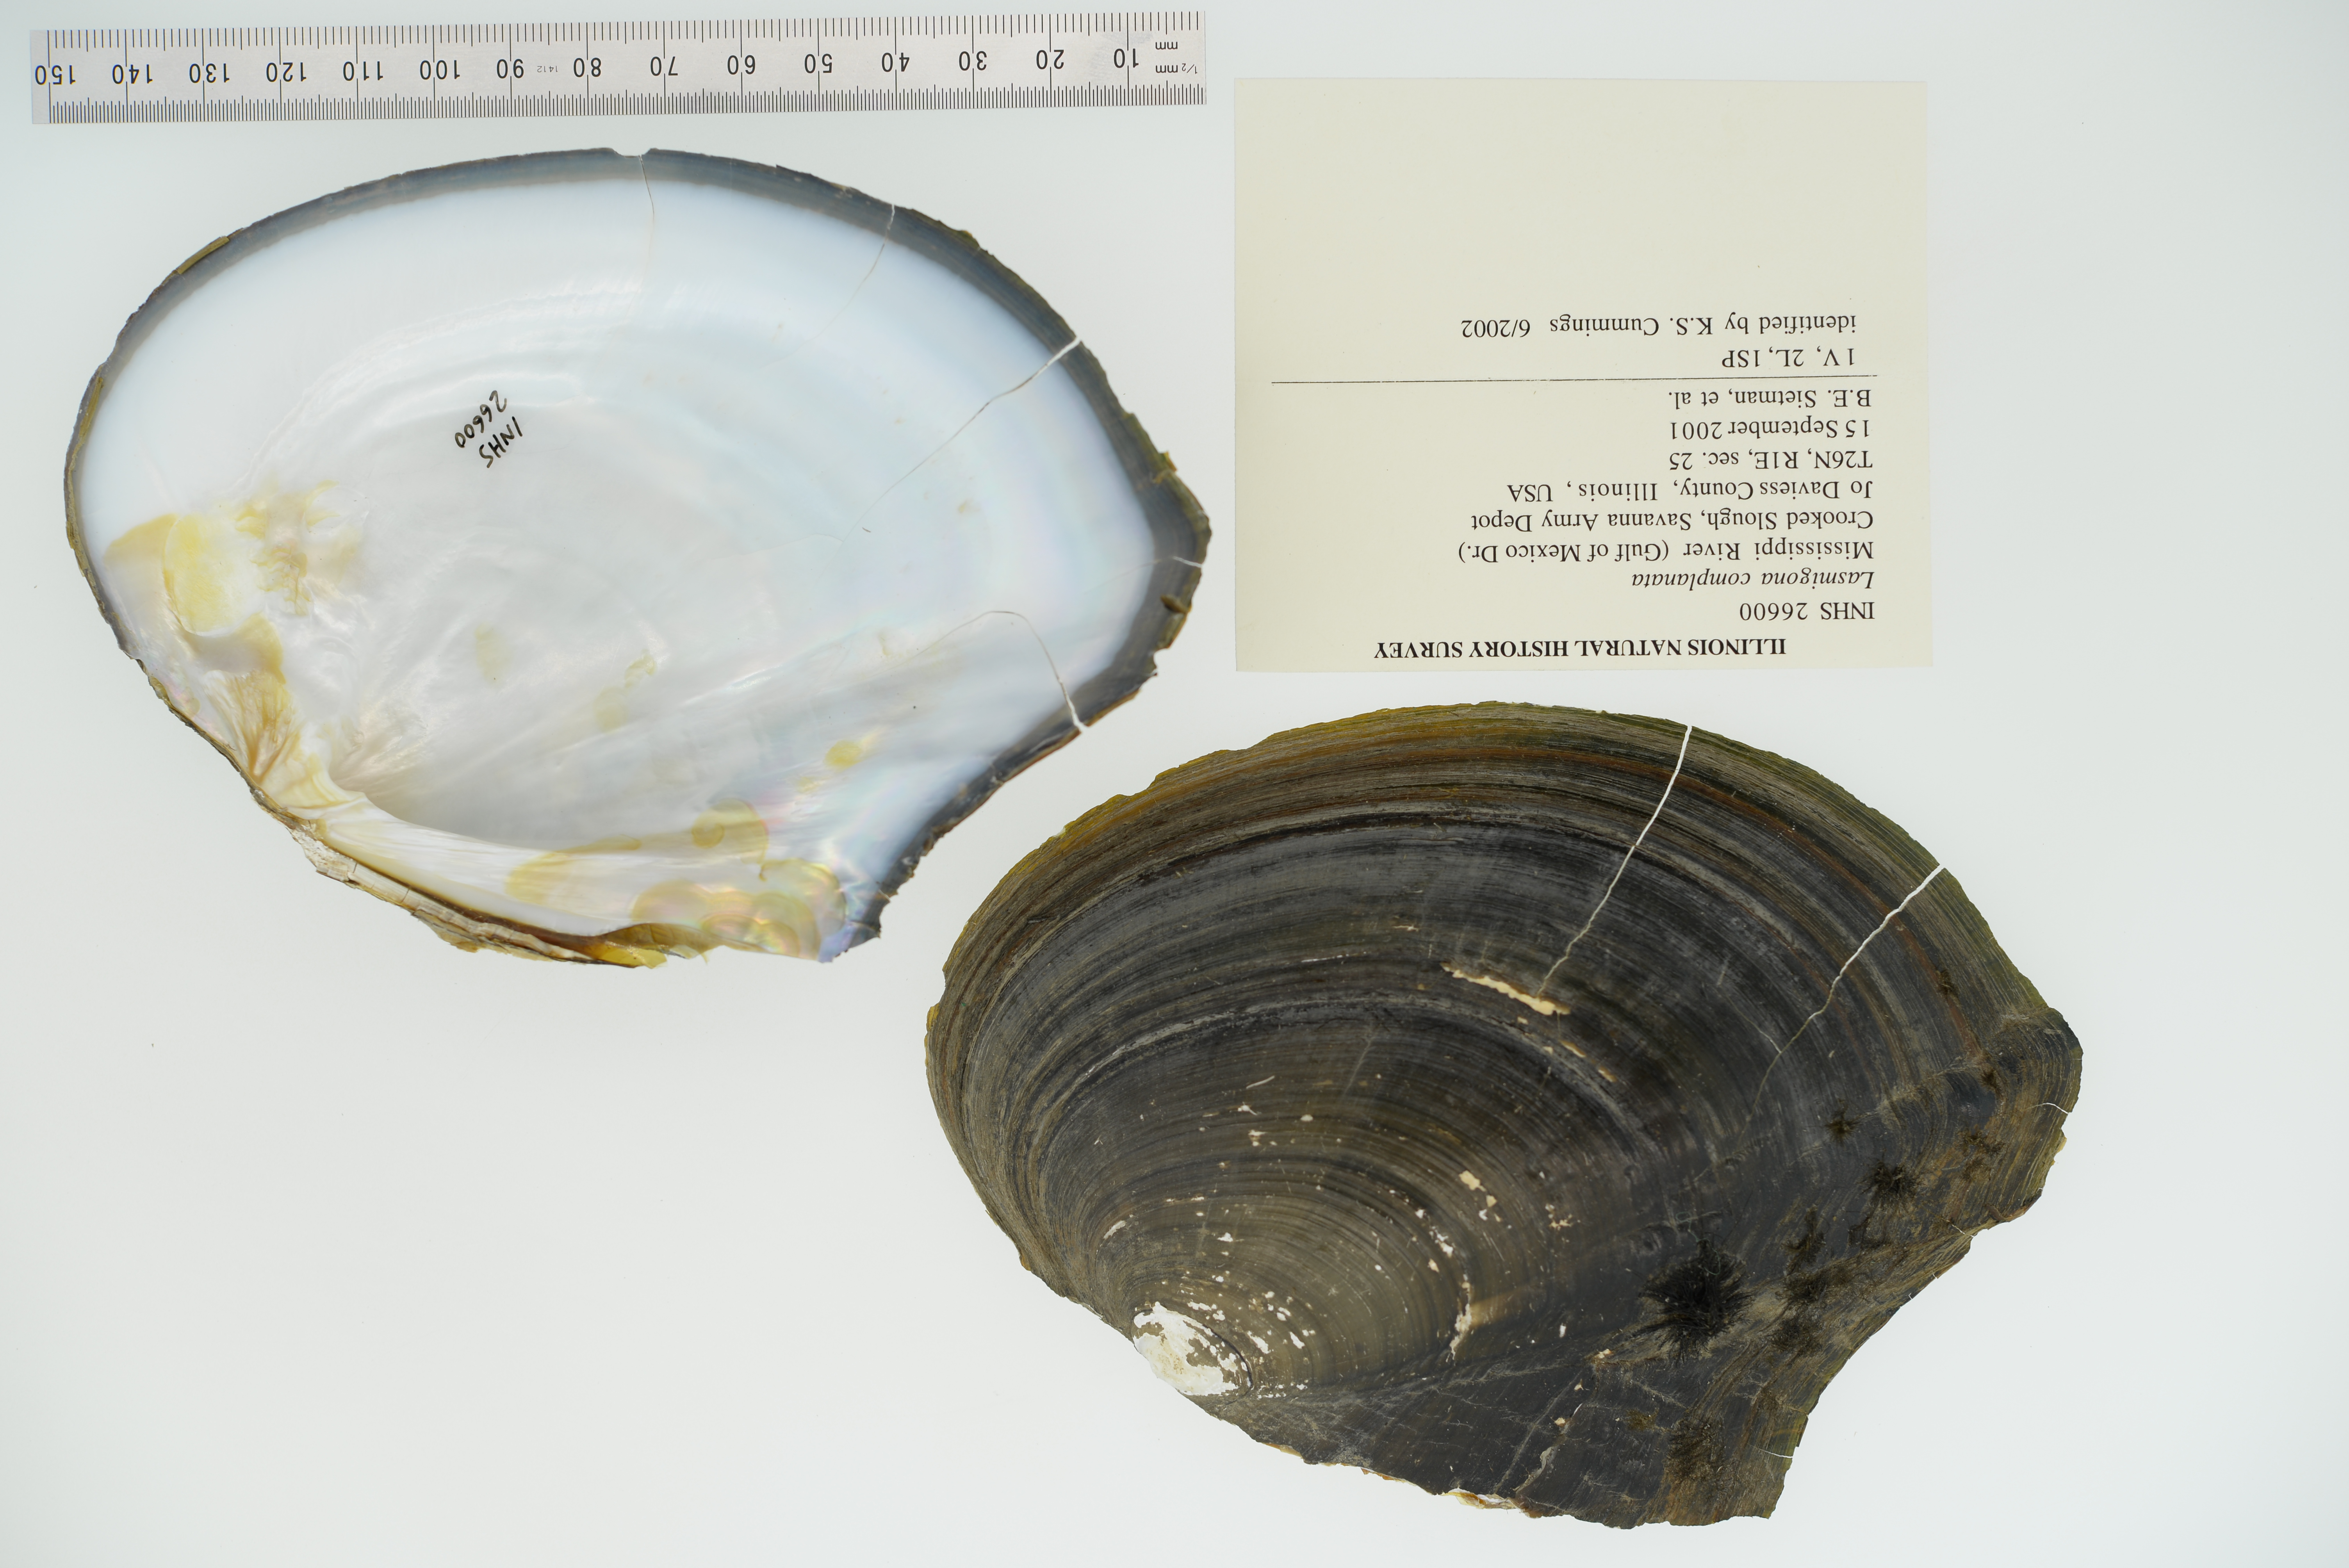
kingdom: Animalia
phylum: Mollusca
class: Bivalvia
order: Unionida
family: Unionidae
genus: Lasmigona
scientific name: Lasmigona complanata
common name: White heelsplitter
